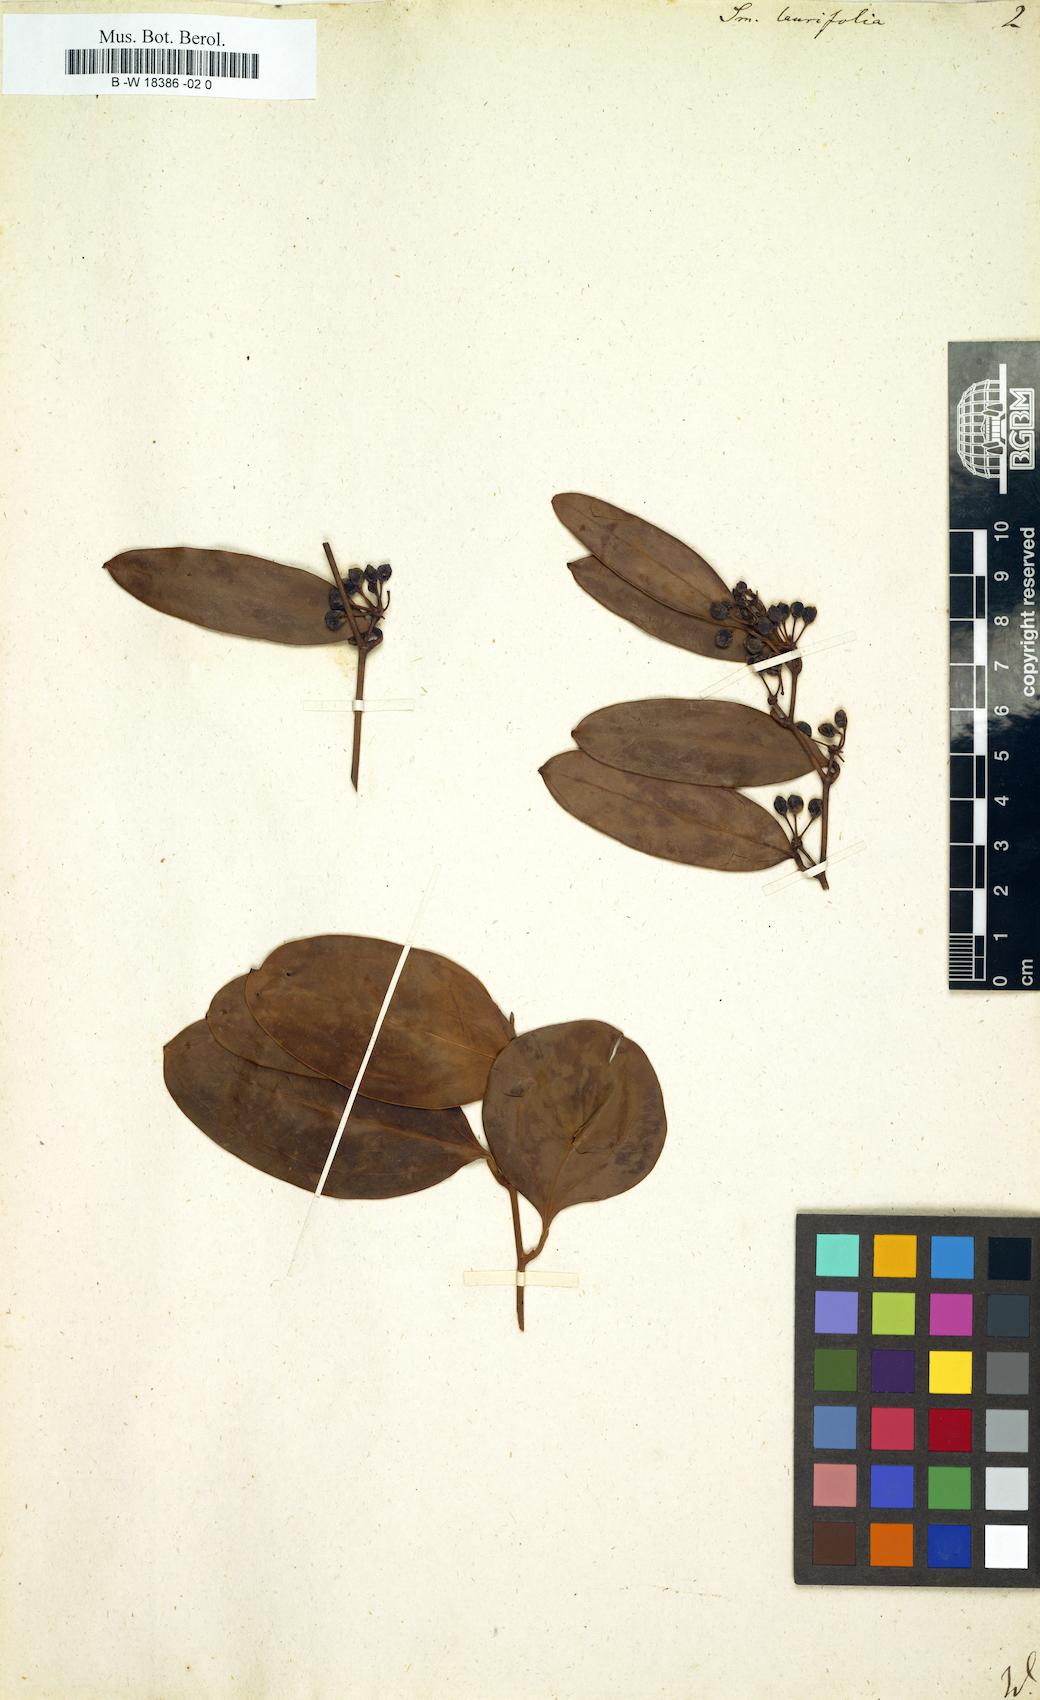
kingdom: Plantae
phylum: Tracheophyta
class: Liliopsida
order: Liliales
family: Smilacaceae
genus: Smilax
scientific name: Smilax laurifolia
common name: Bamboovine
